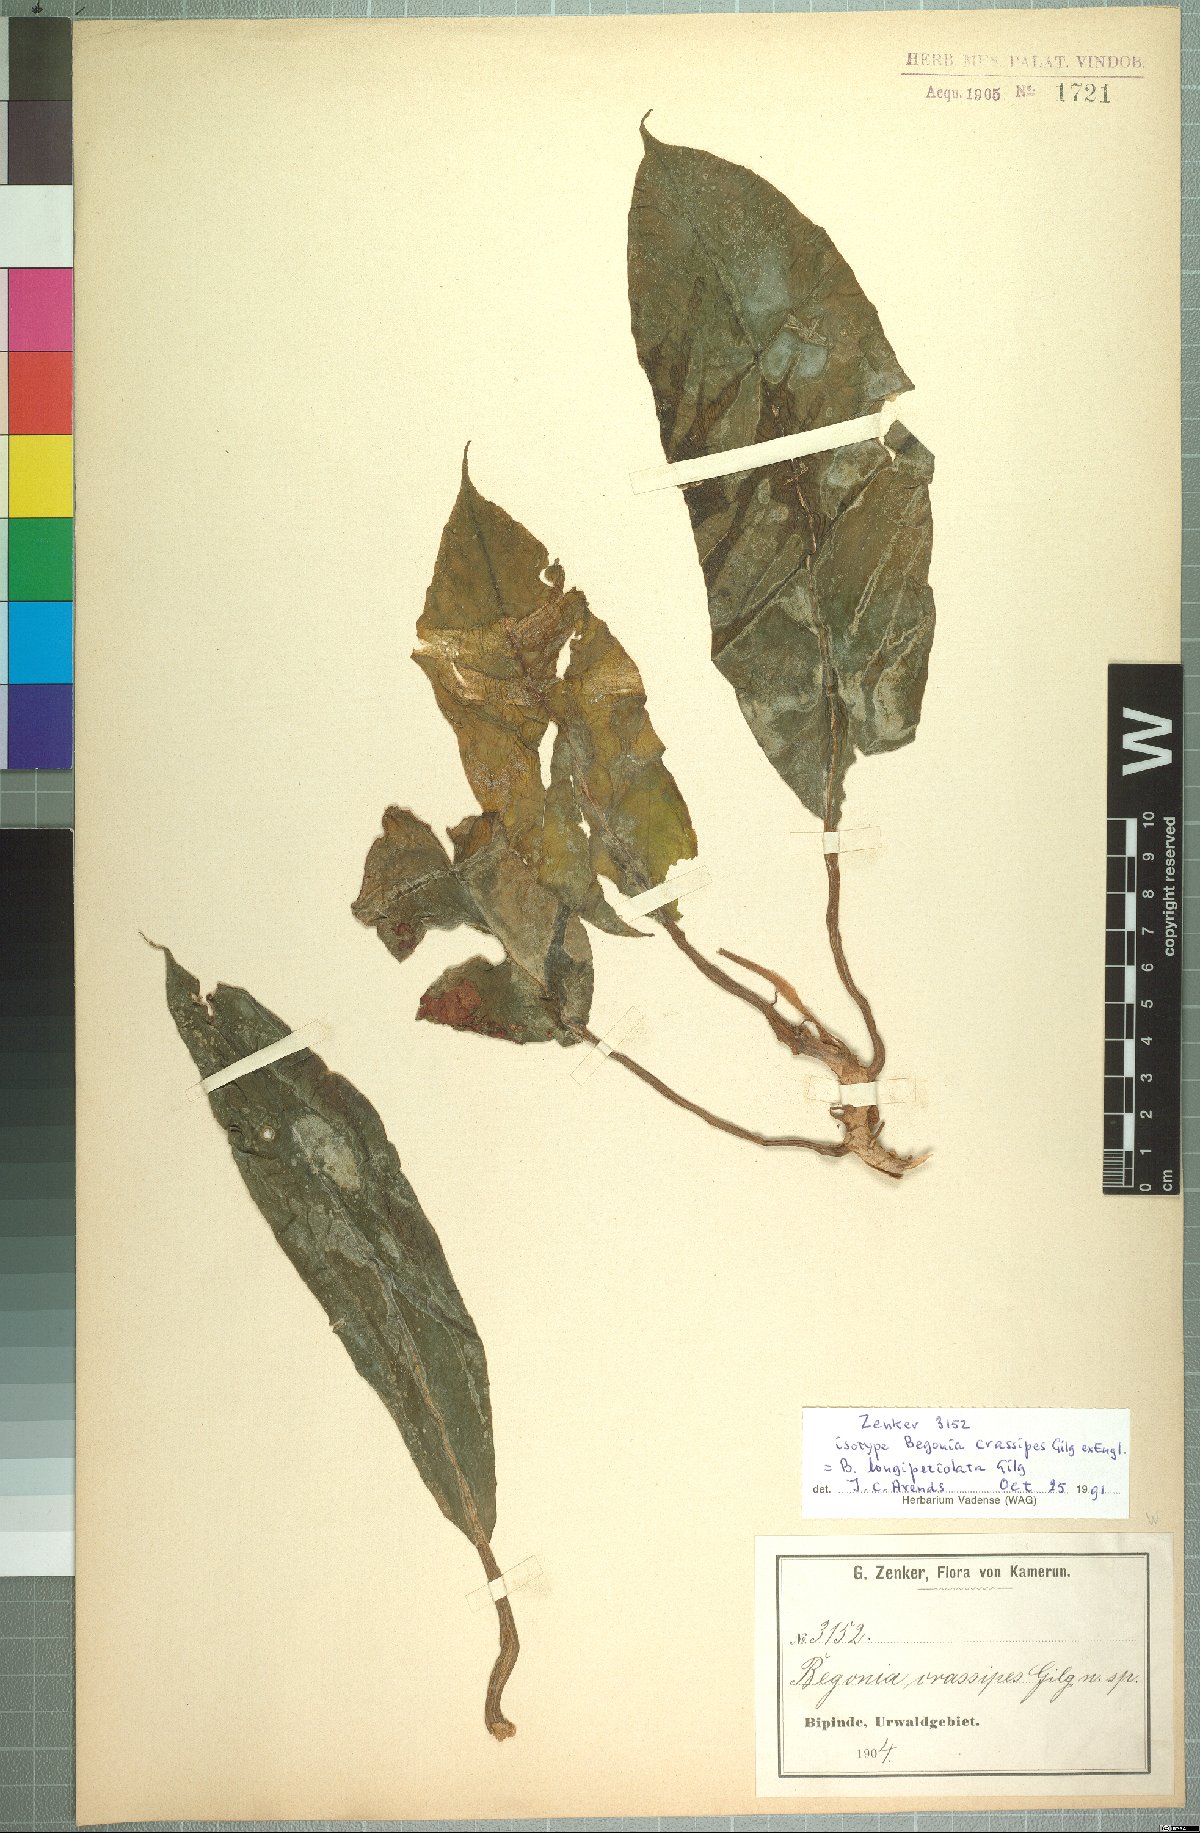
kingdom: Plantae
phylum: Tracheophyta
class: Magnoliopsida
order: Cucurbitales
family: Begoniaceae
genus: Begonia
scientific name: Begonia longipetiolata
